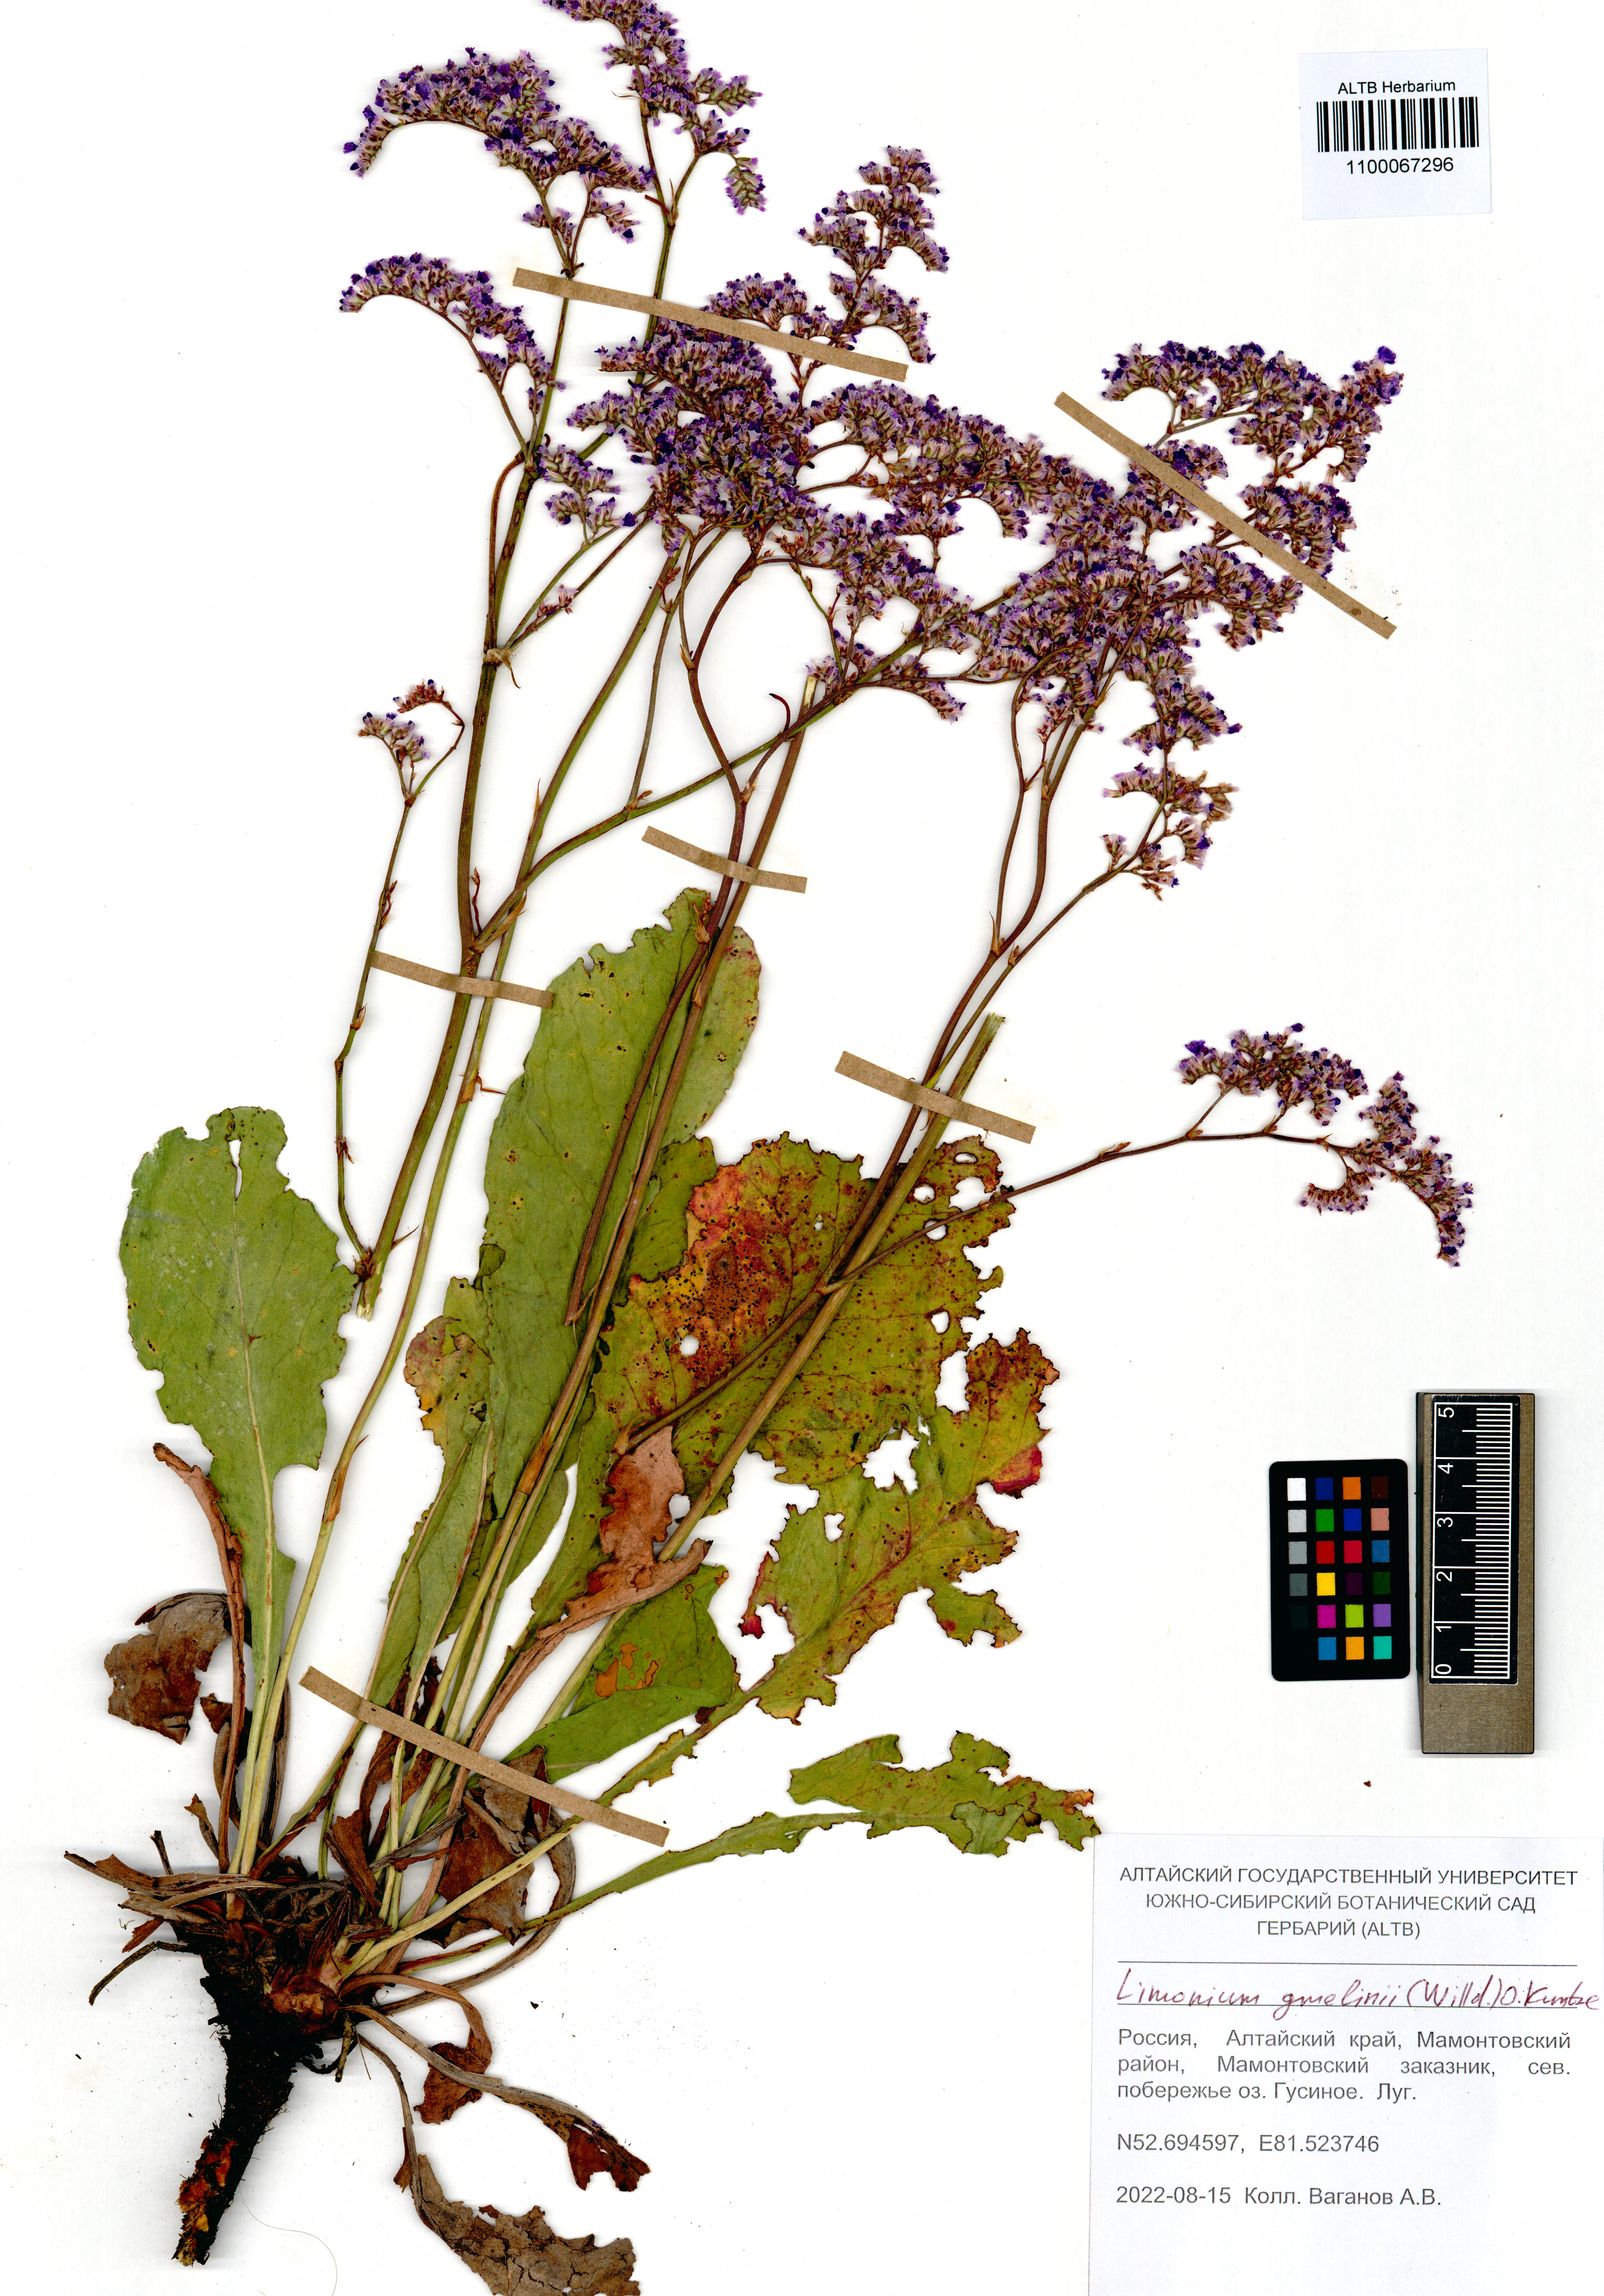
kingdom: Plantae
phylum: Tracheophyta
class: Magnoliopsida
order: Caryophyllales
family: Plumbaginaceae
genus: Limonium
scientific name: Limonium gmelini
